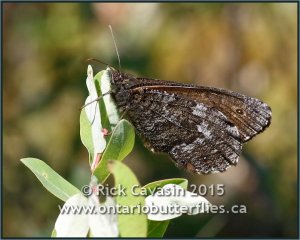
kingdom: Animalia
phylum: Arthropoda
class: Insecta
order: Lepidoptera
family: Nymphalidae
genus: Oeneis
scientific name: Oeneis jutta
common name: Jutta Arctic
